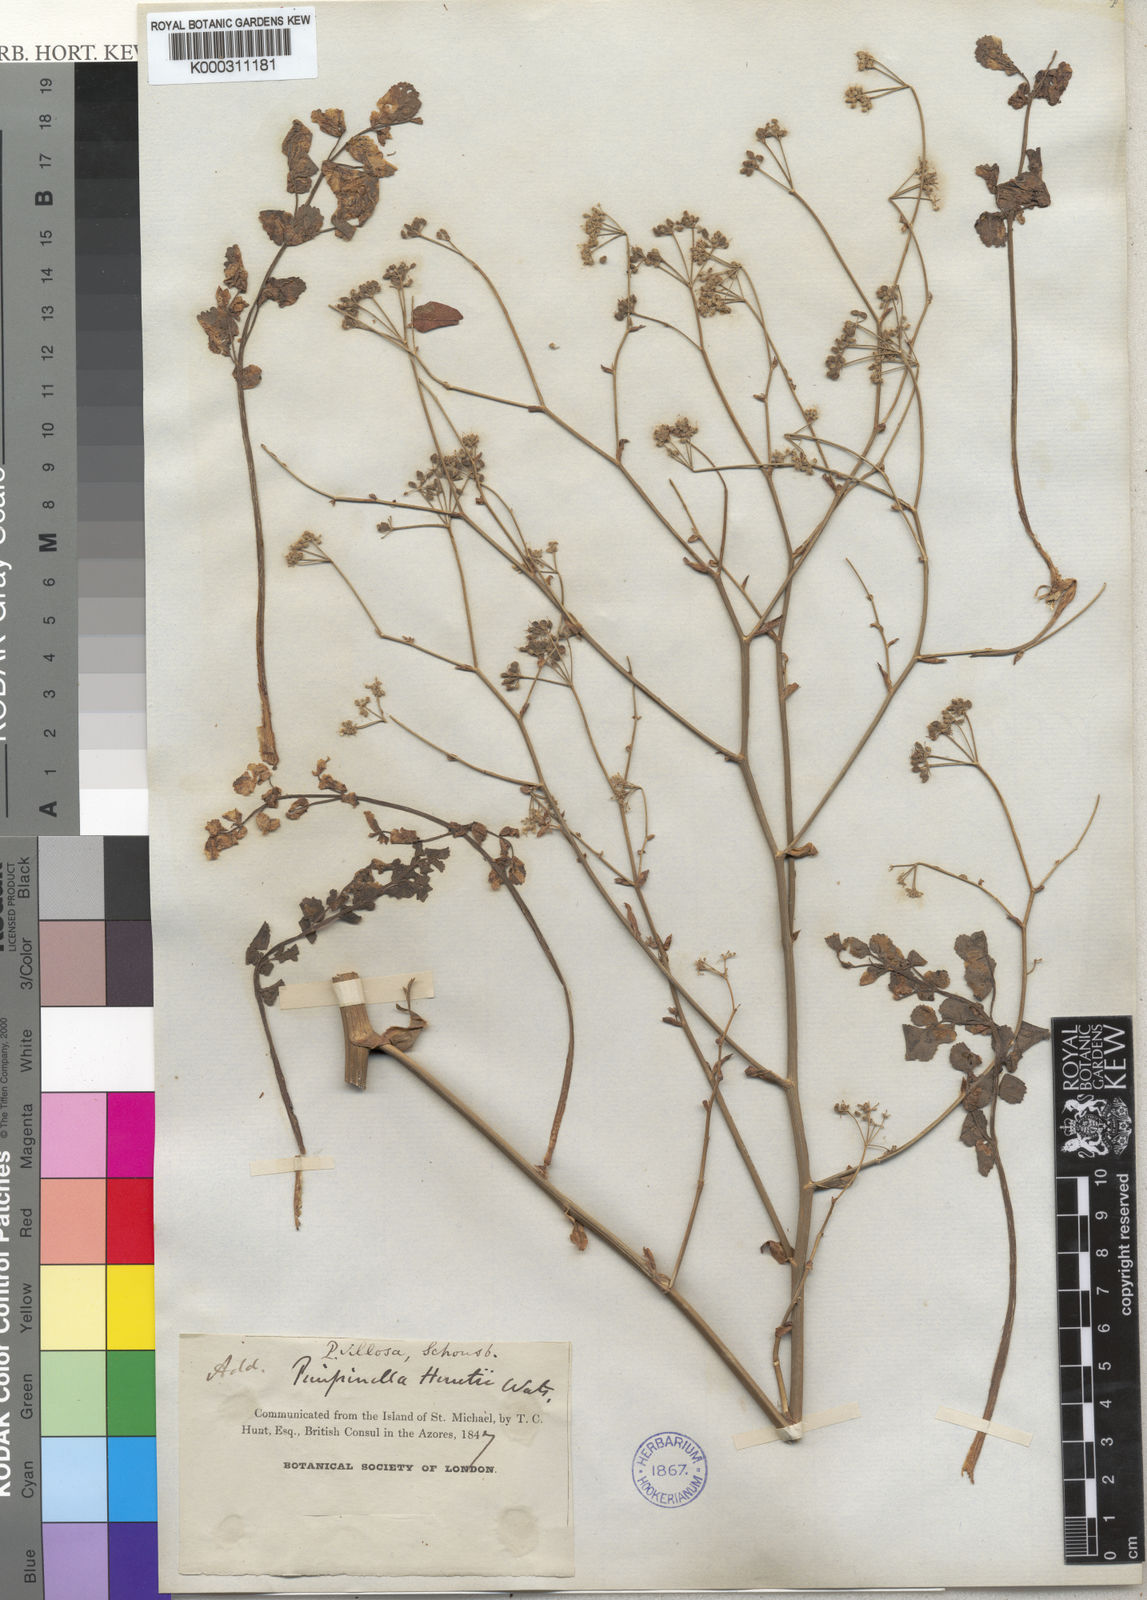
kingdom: Plantae
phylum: Tracheophyta
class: Magnoliopsida
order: Apiales
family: Apiaceae
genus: Pimpinella
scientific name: Pimpinella villosa
